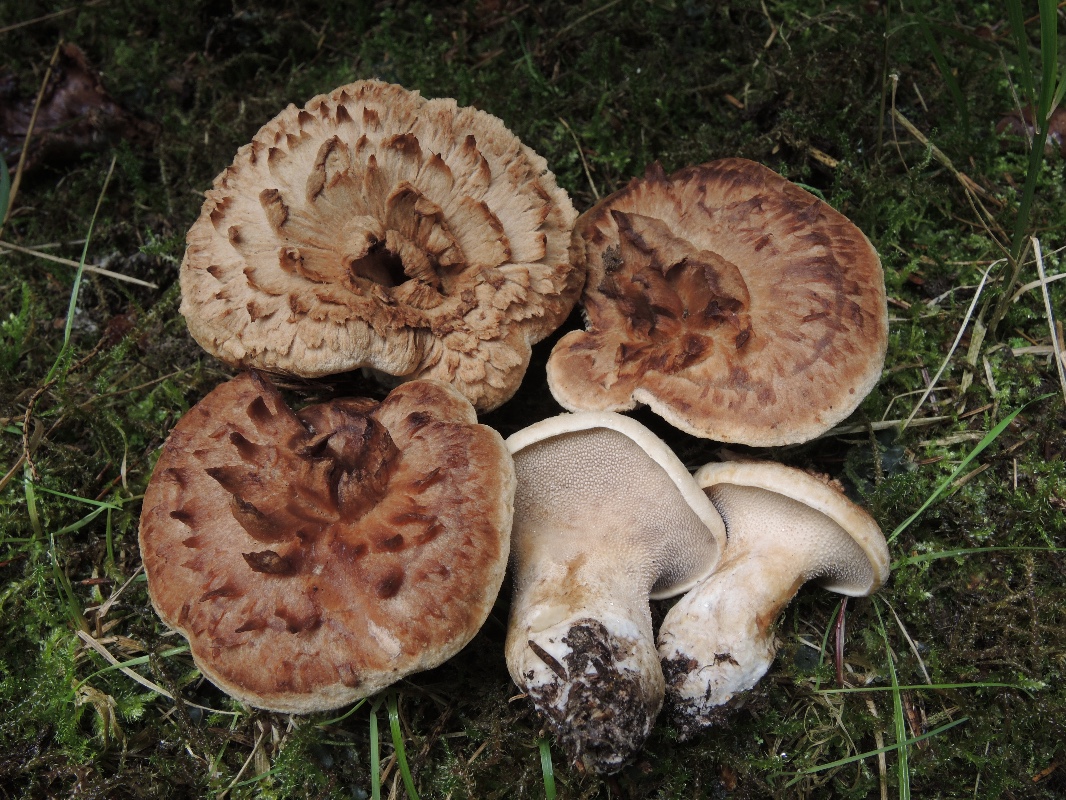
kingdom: Fungi
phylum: Basidiomycota
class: Agaricomycetes
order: Thelephorales
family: Bankeraceae
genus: Sarcodon
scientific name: Sarcodon imbricatus
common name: skællet kødpigsvamp
